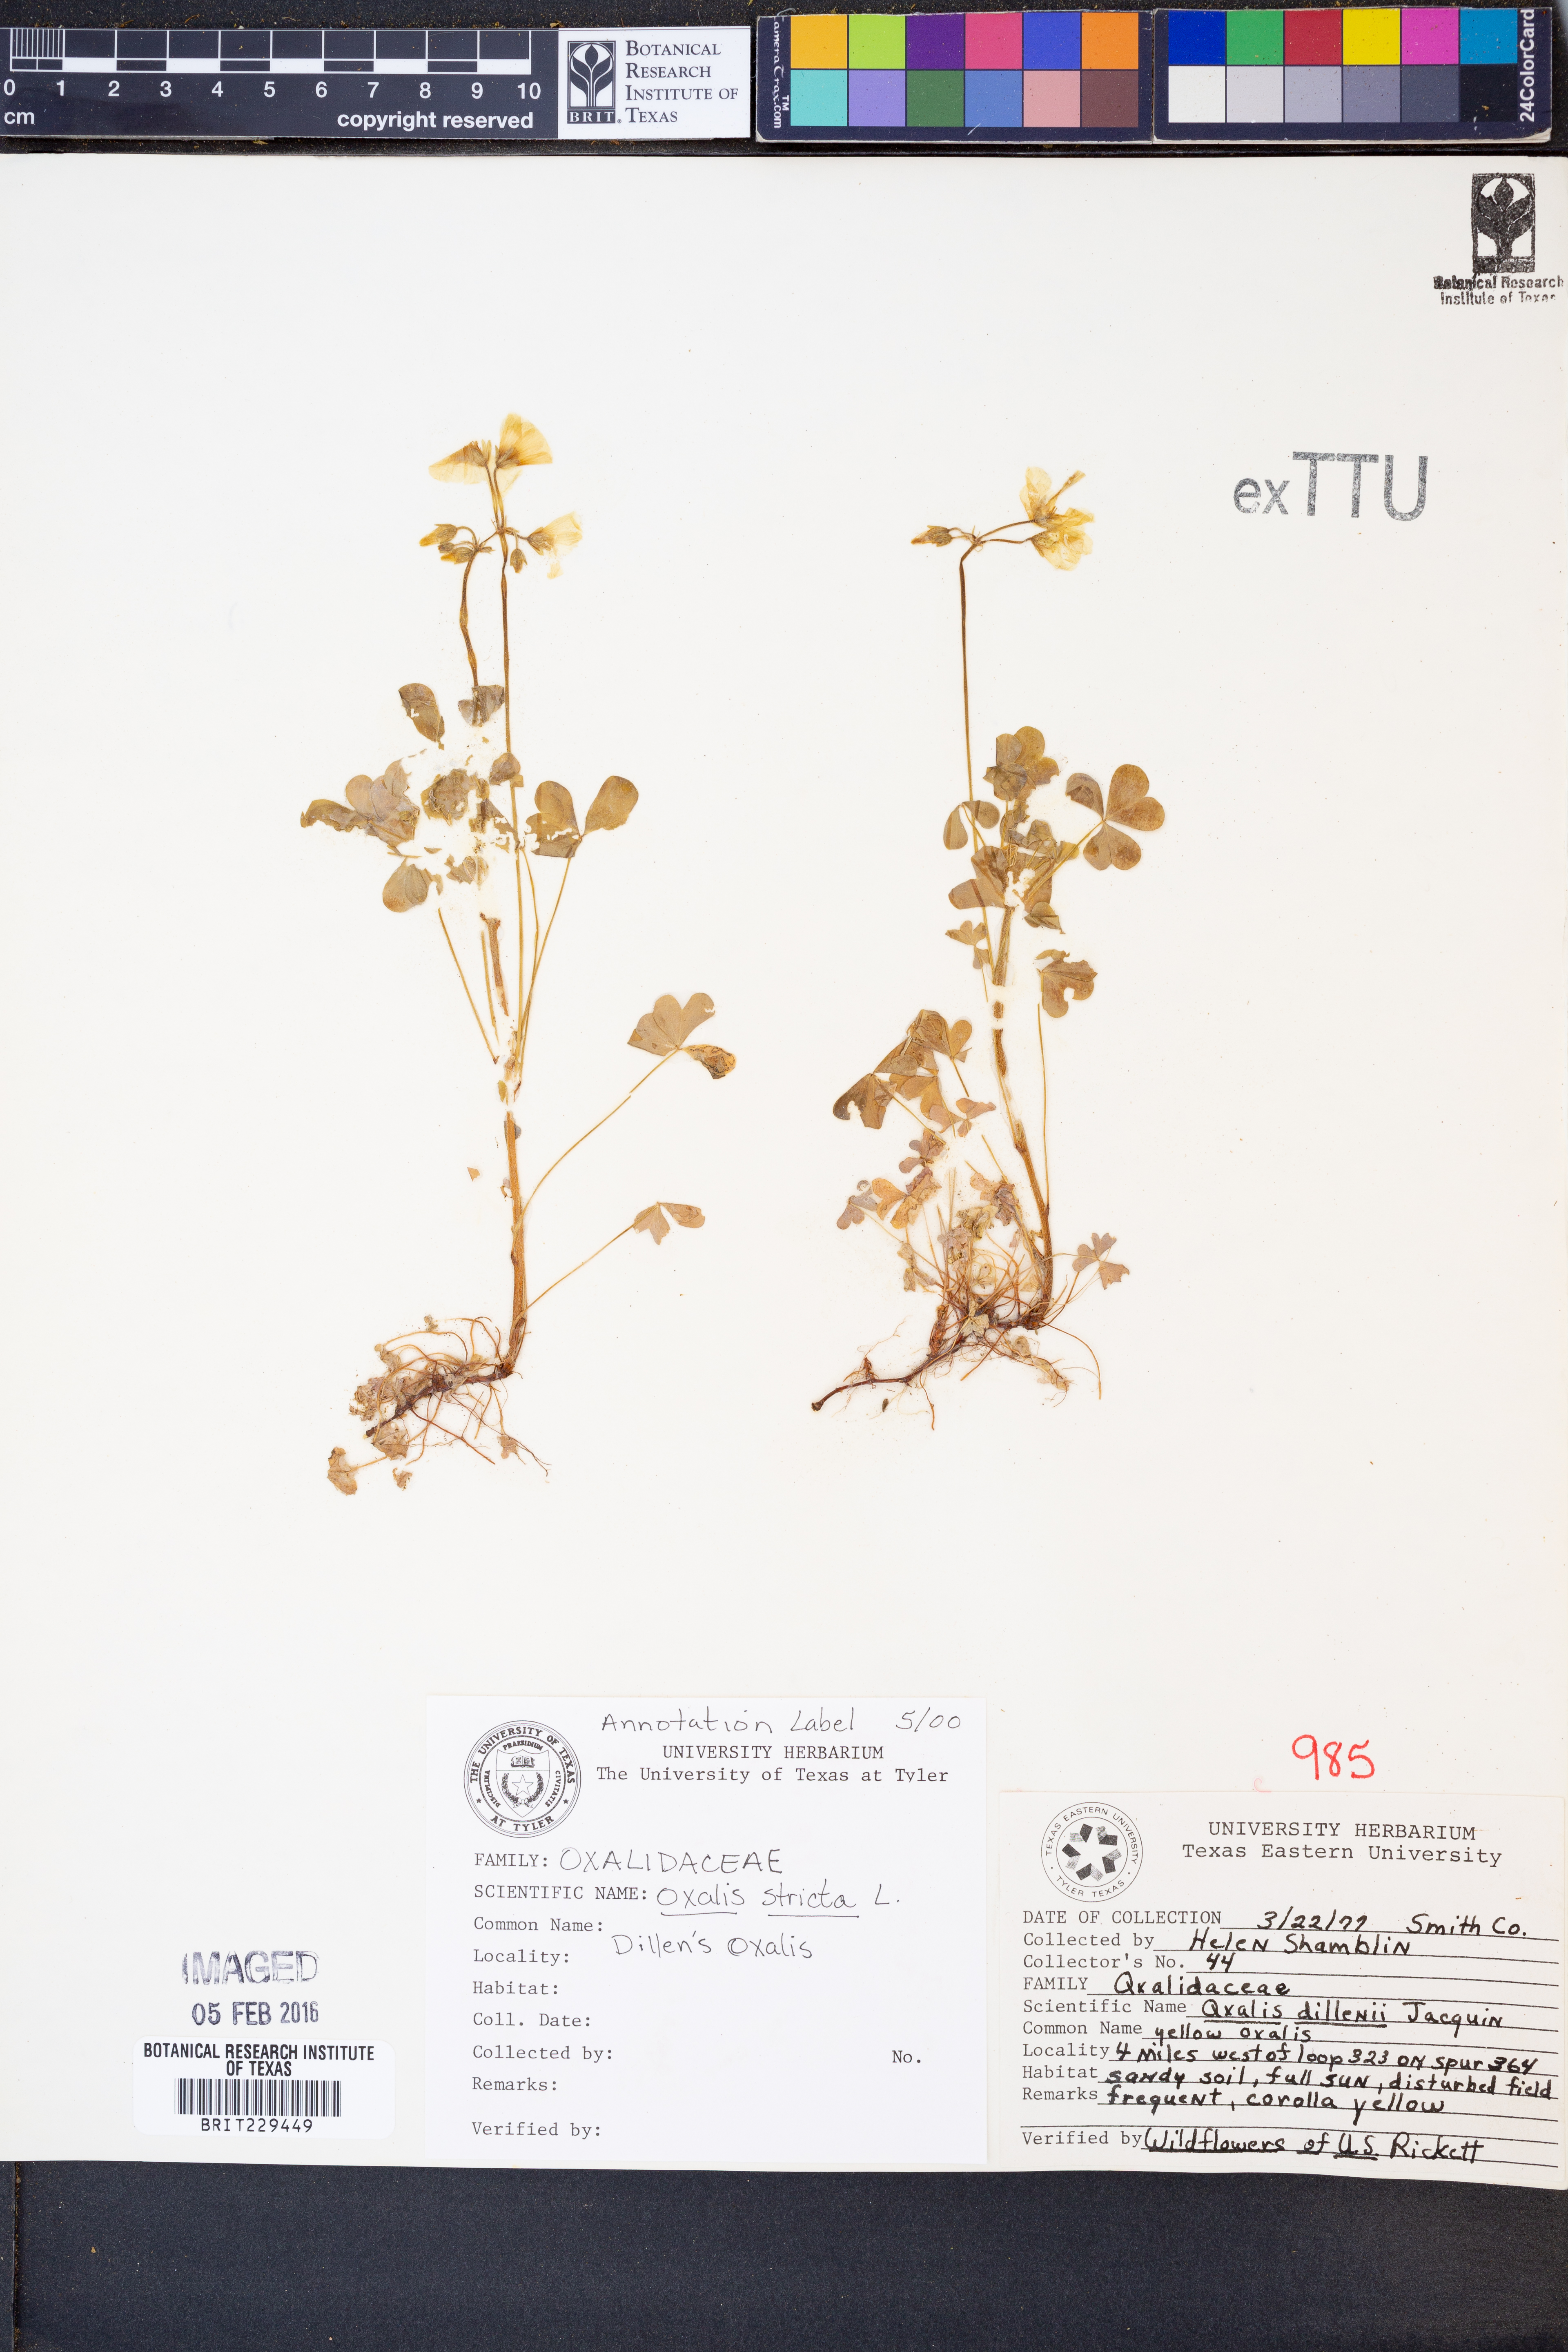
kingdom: Plantae
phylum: Tracheophyta
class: Magnoliopsida
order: Oxalidales
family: Oxalidaceae
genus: Oxalis
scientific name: Oxalis stricta
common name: Upright yellow-sorrel
